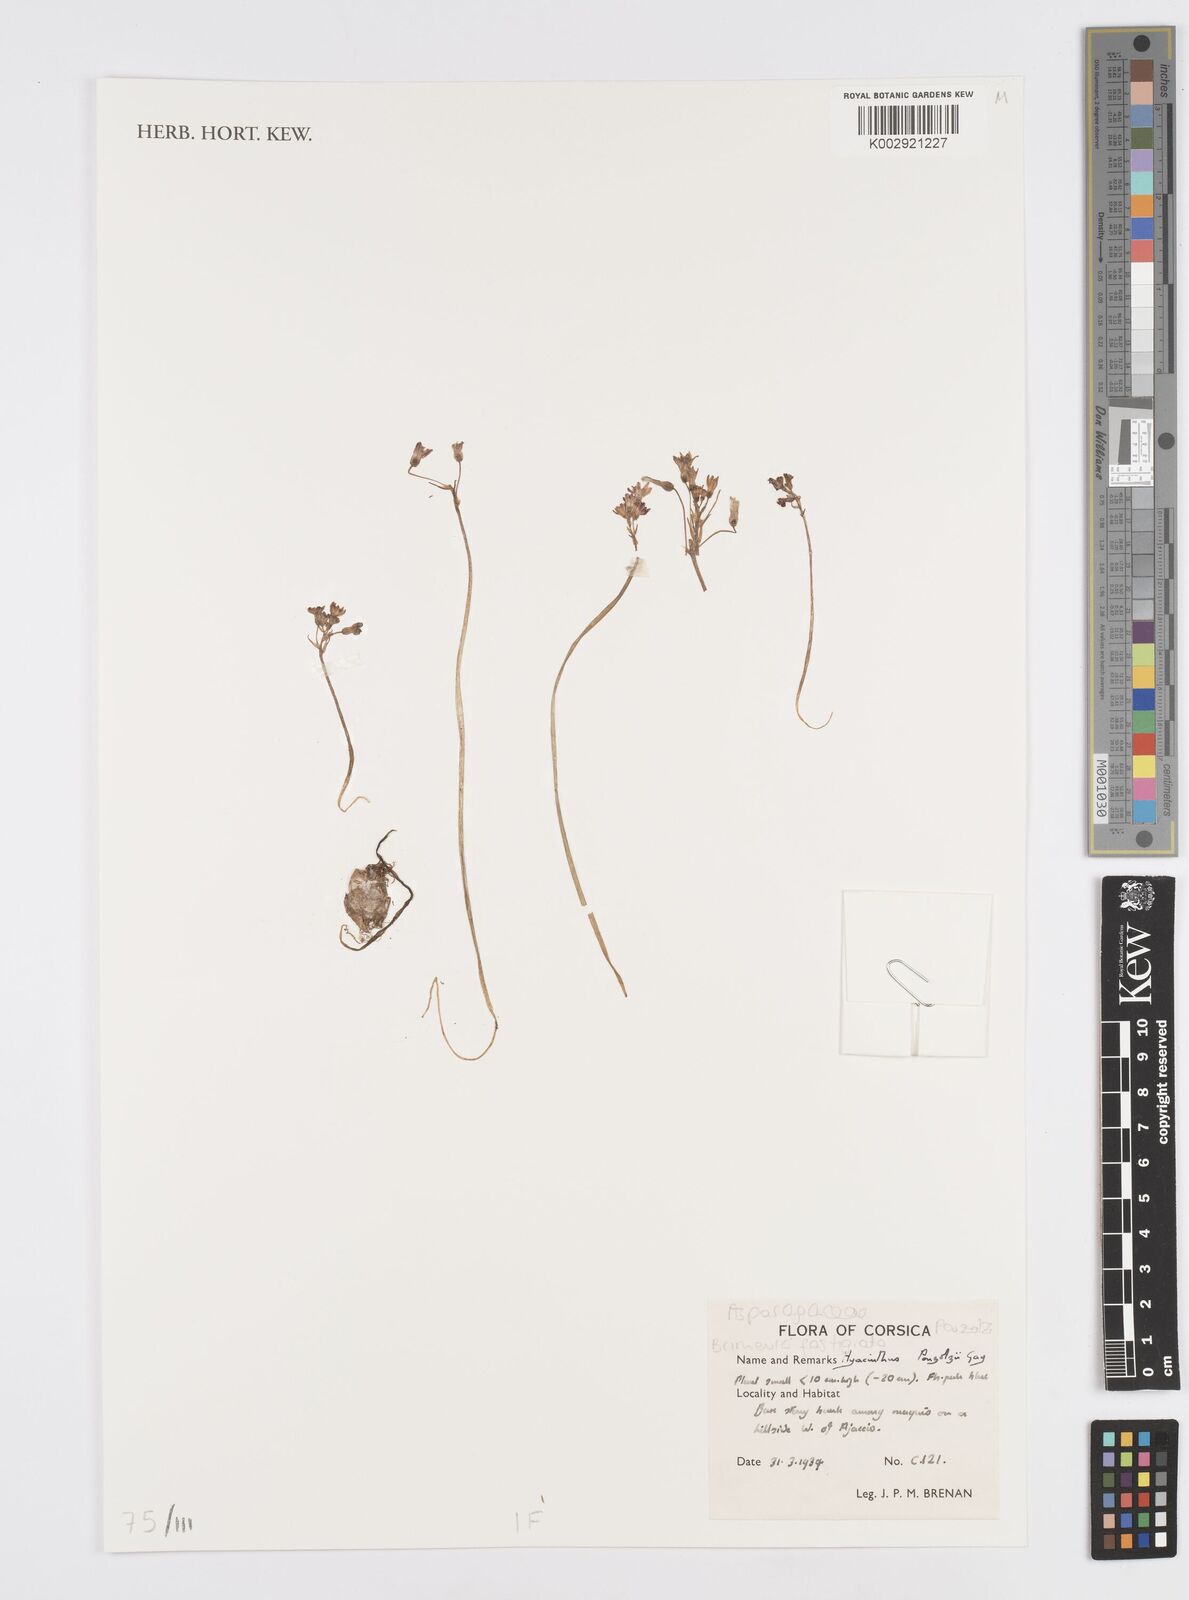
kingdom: Plantae
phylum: Tracheophyta
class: Liliopsida
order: Asparagales
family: Asparagaceae
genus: Hyacinthus
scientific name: Hyacinthus
